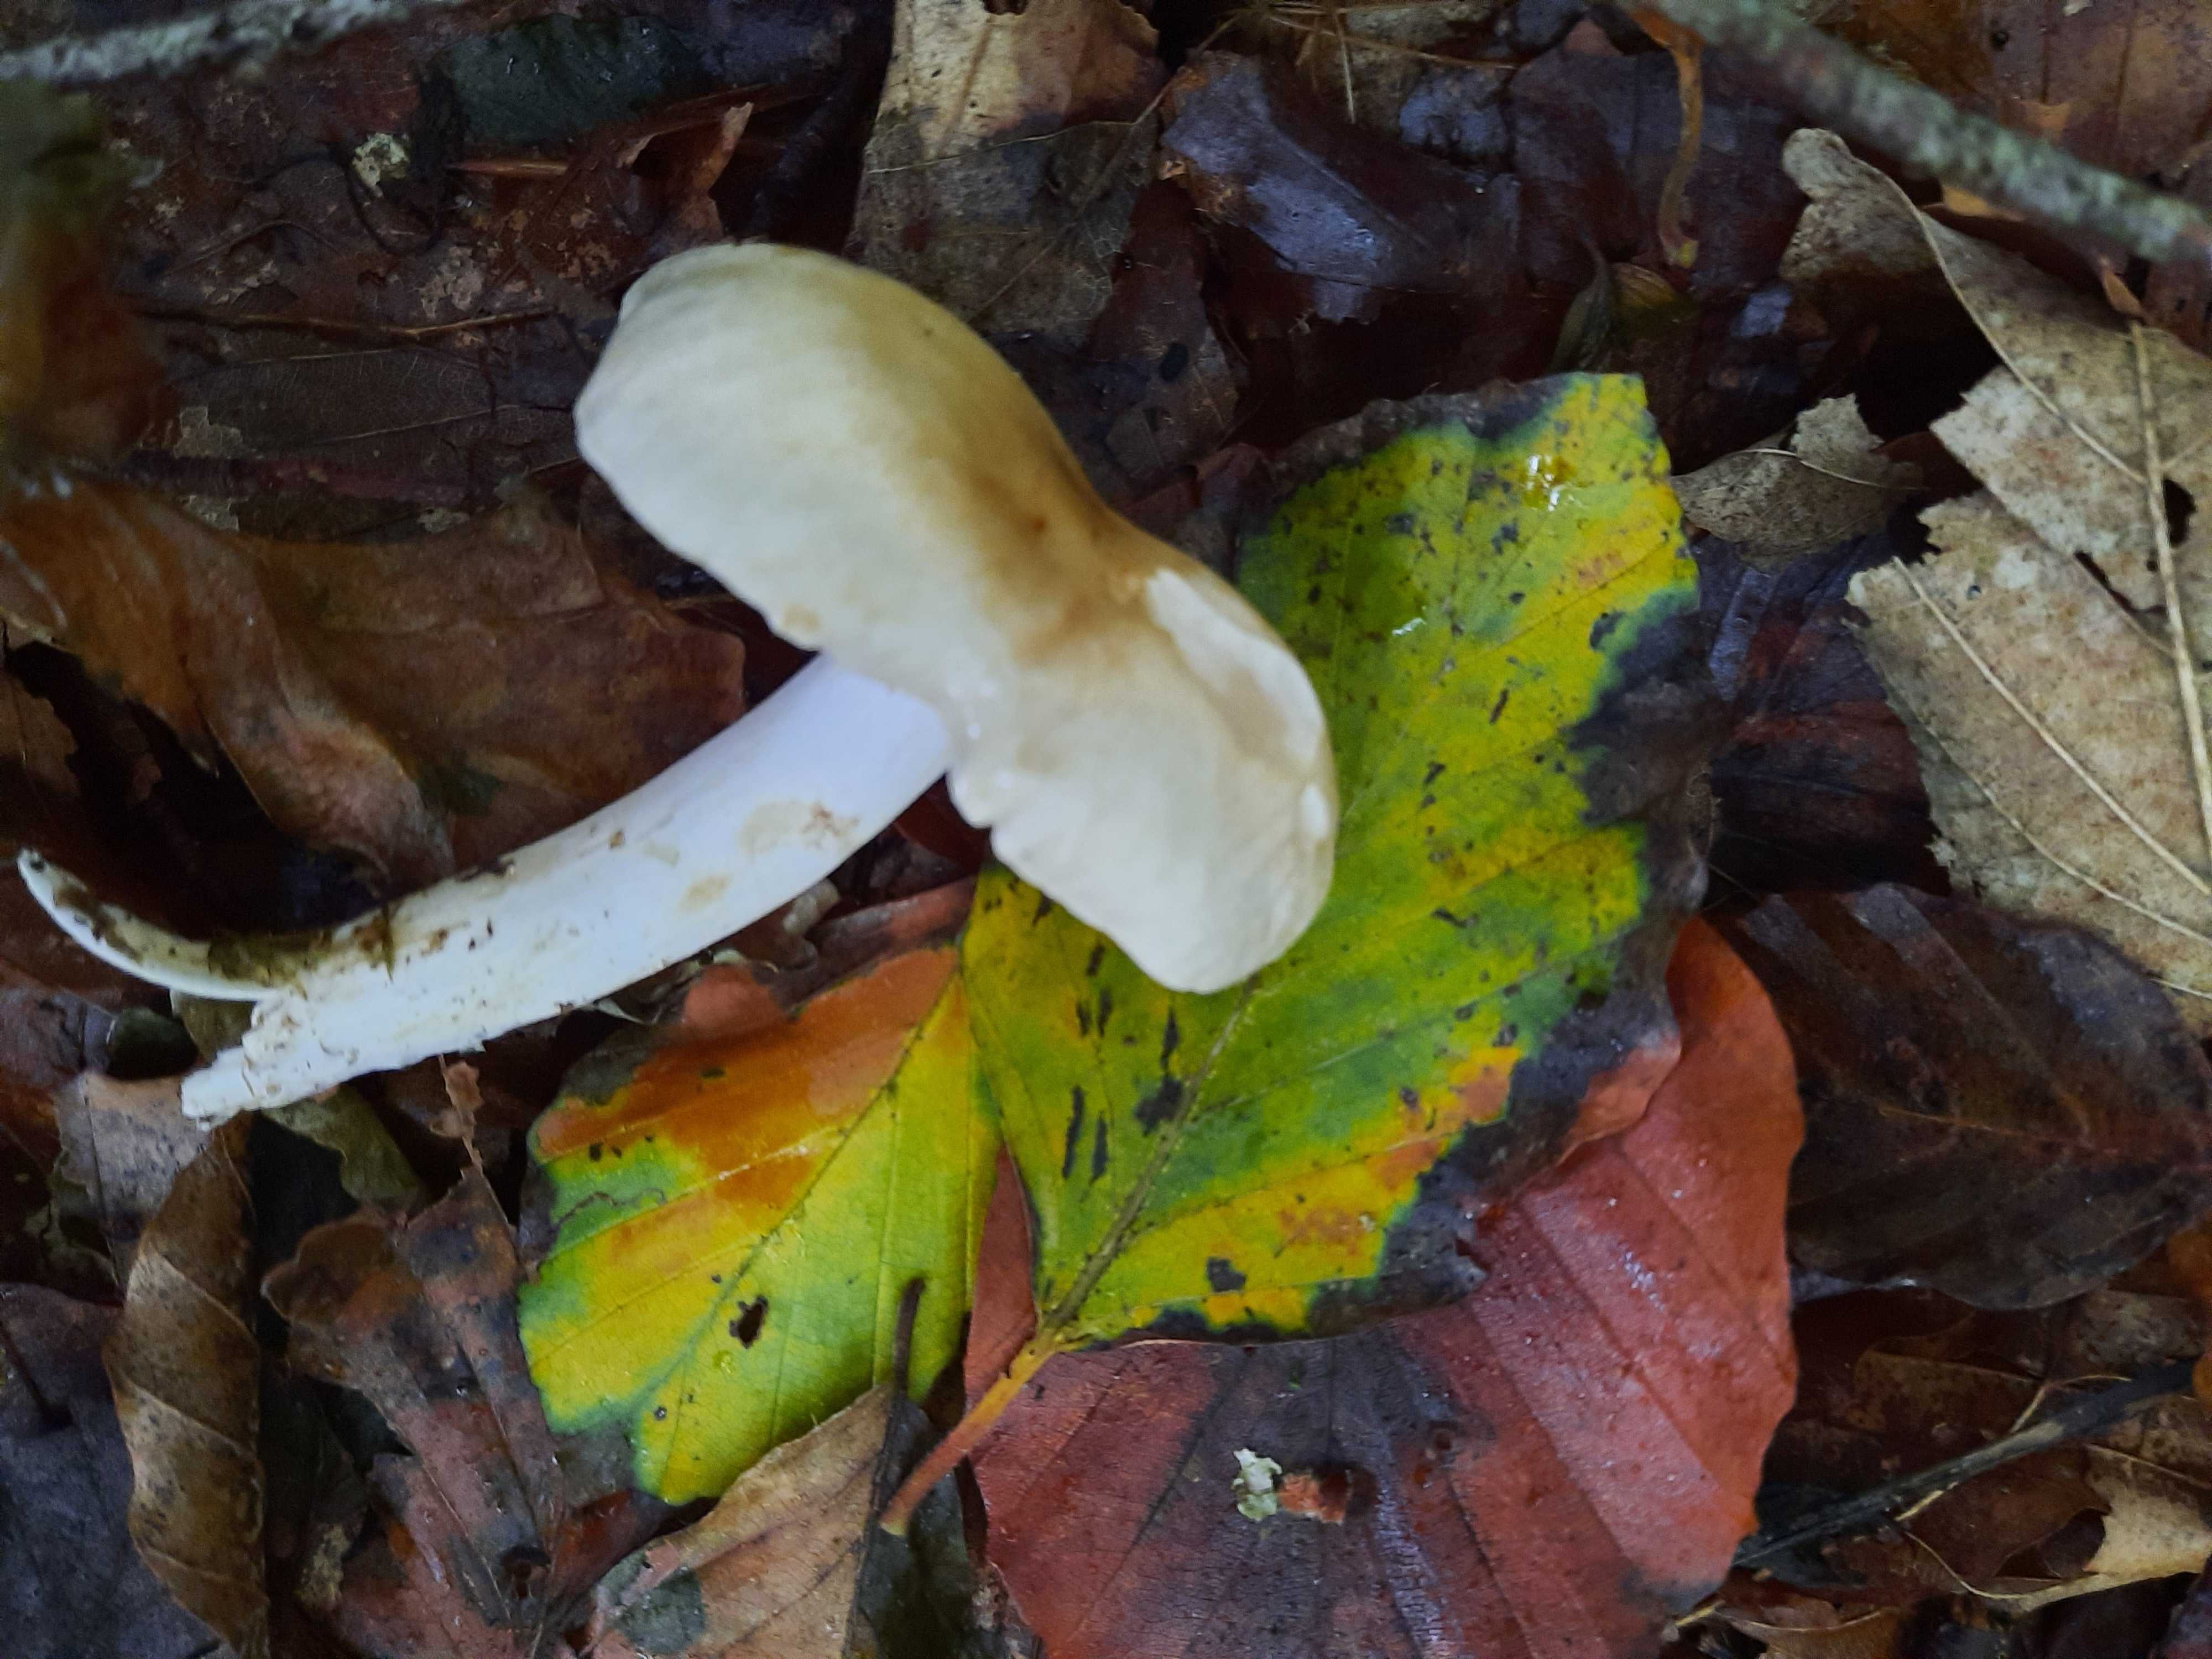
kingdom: Fungi
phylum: Basidiomycota
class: Agaricomycetes
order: Agaricales
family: Tricholomataceae
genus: Tricholoma
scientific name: Tricholoma lascivum
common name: stinkende ridderhat
